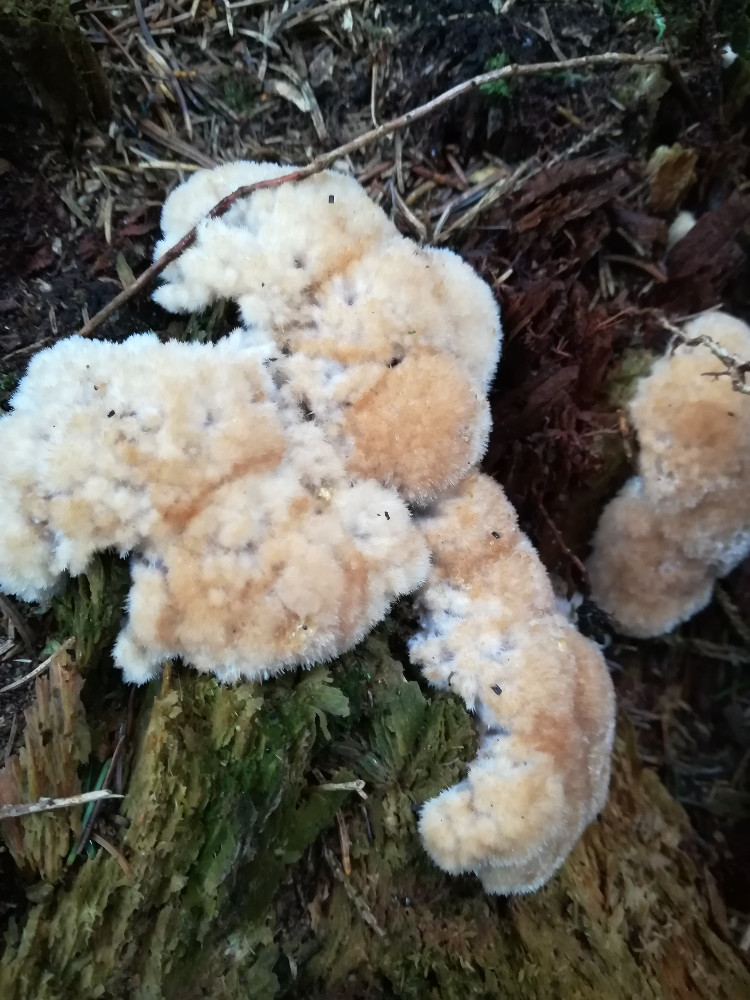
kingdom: Fungi
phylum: Basidiomycota
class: Agaricomycetes
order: Polyporales
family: Dacryobolaceae
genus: Postia
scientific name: Postia ptychogaster
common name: støvende kødporesvamp
